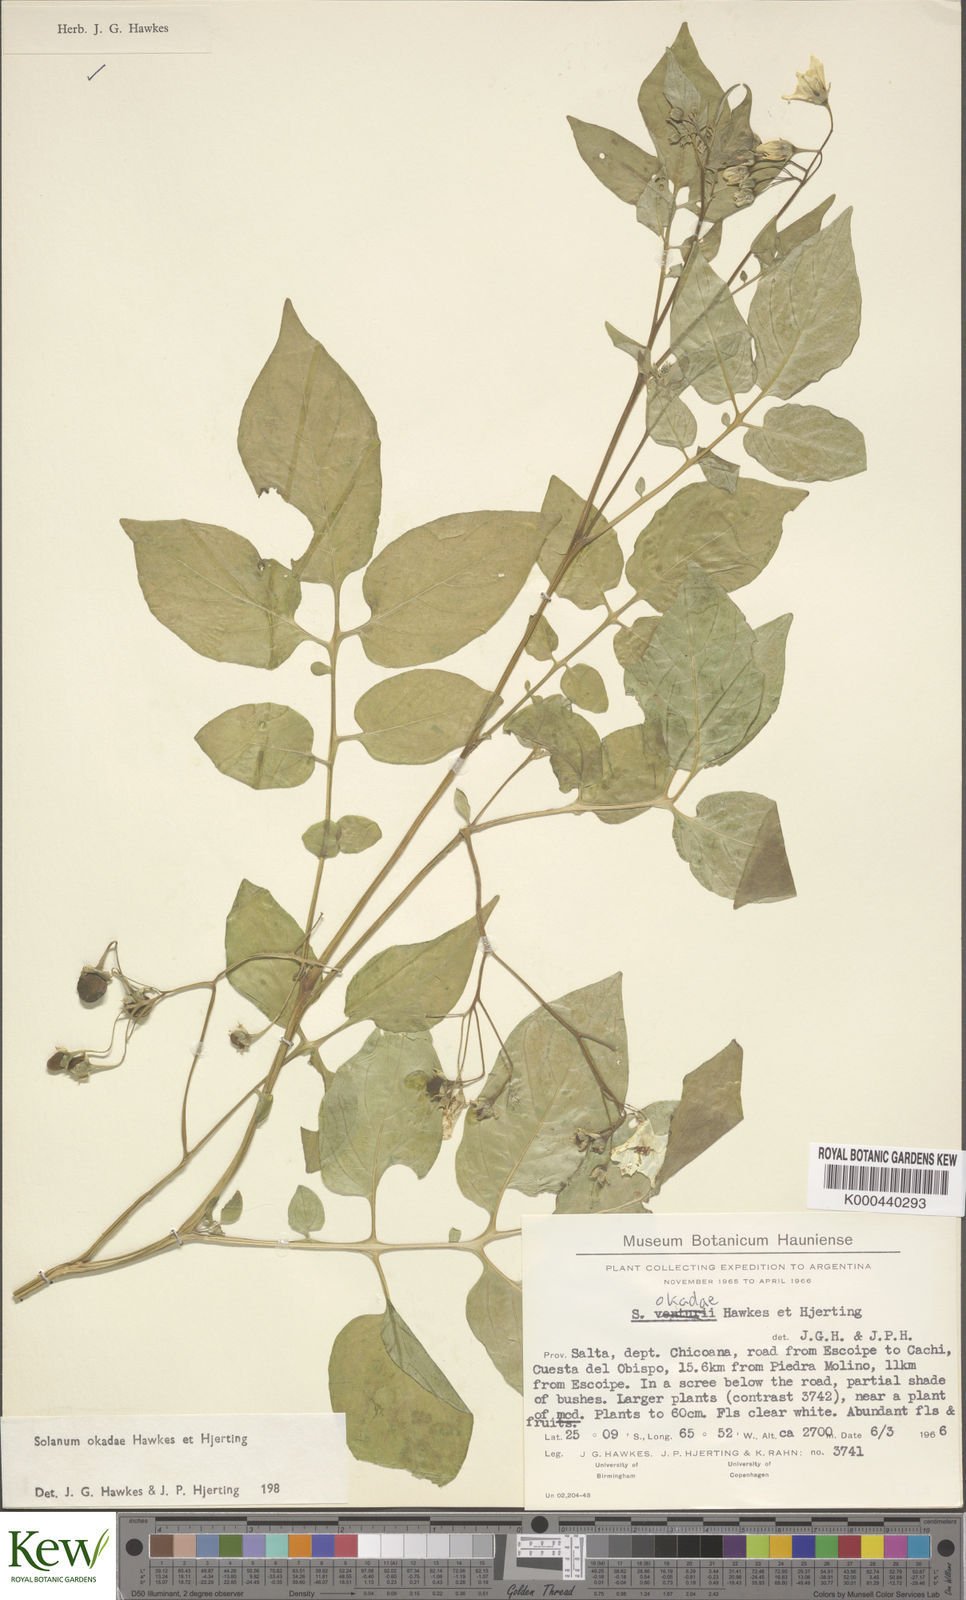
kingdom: Plantae
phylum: Tracheophyta
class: Magnoliopsida
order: Solanales
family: Solanaceae
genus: Solanum
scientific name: Solanum okadae
